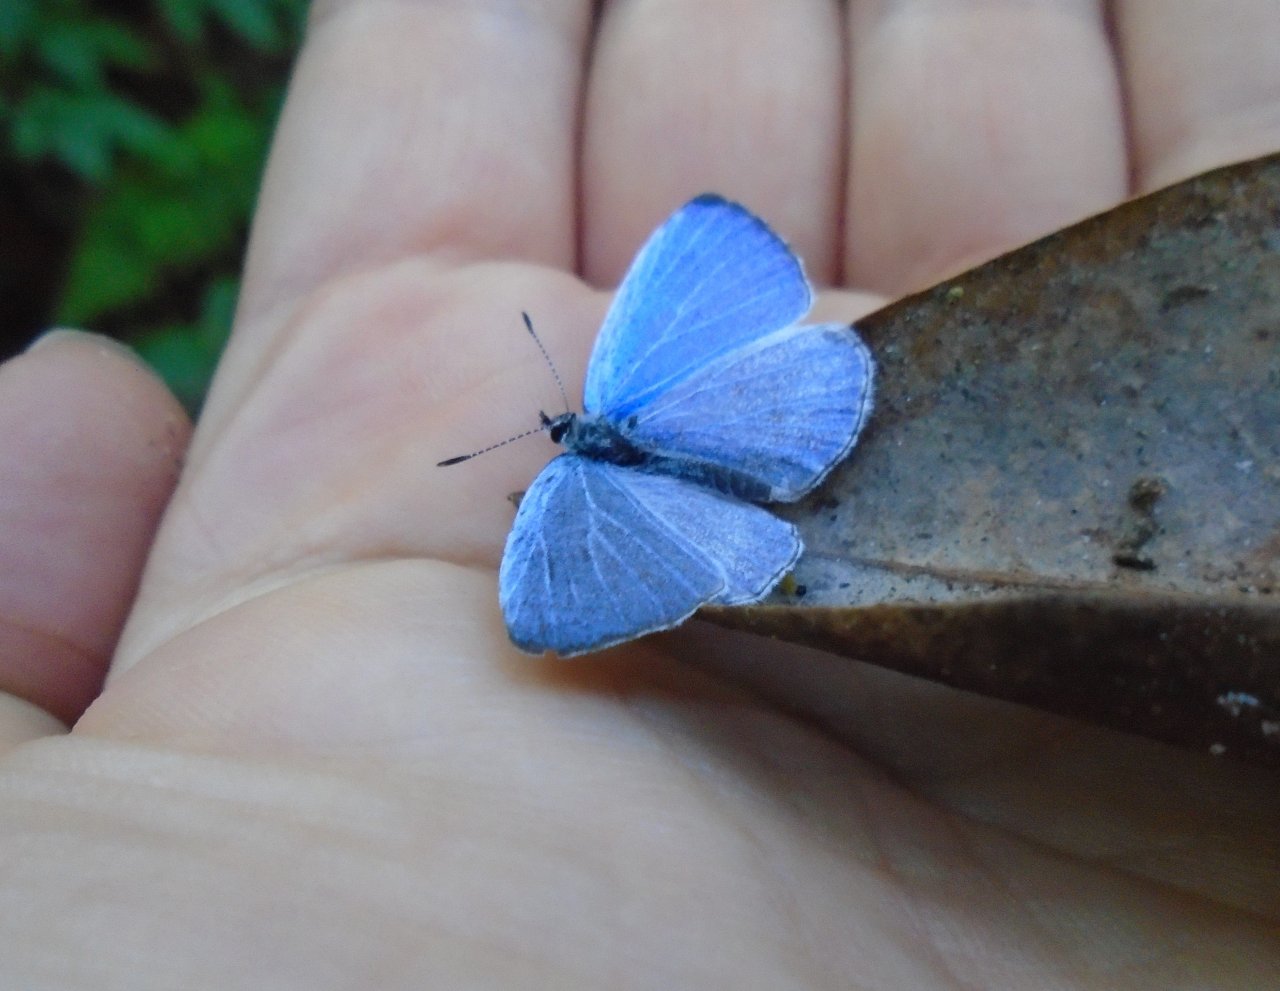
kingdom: Animalia
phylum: Arthropoda
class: Insecta
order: Lepidoptera
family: Lycaenidae
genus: Cyaniris
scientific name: Cyaniris neglecta
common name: Summer Azure
